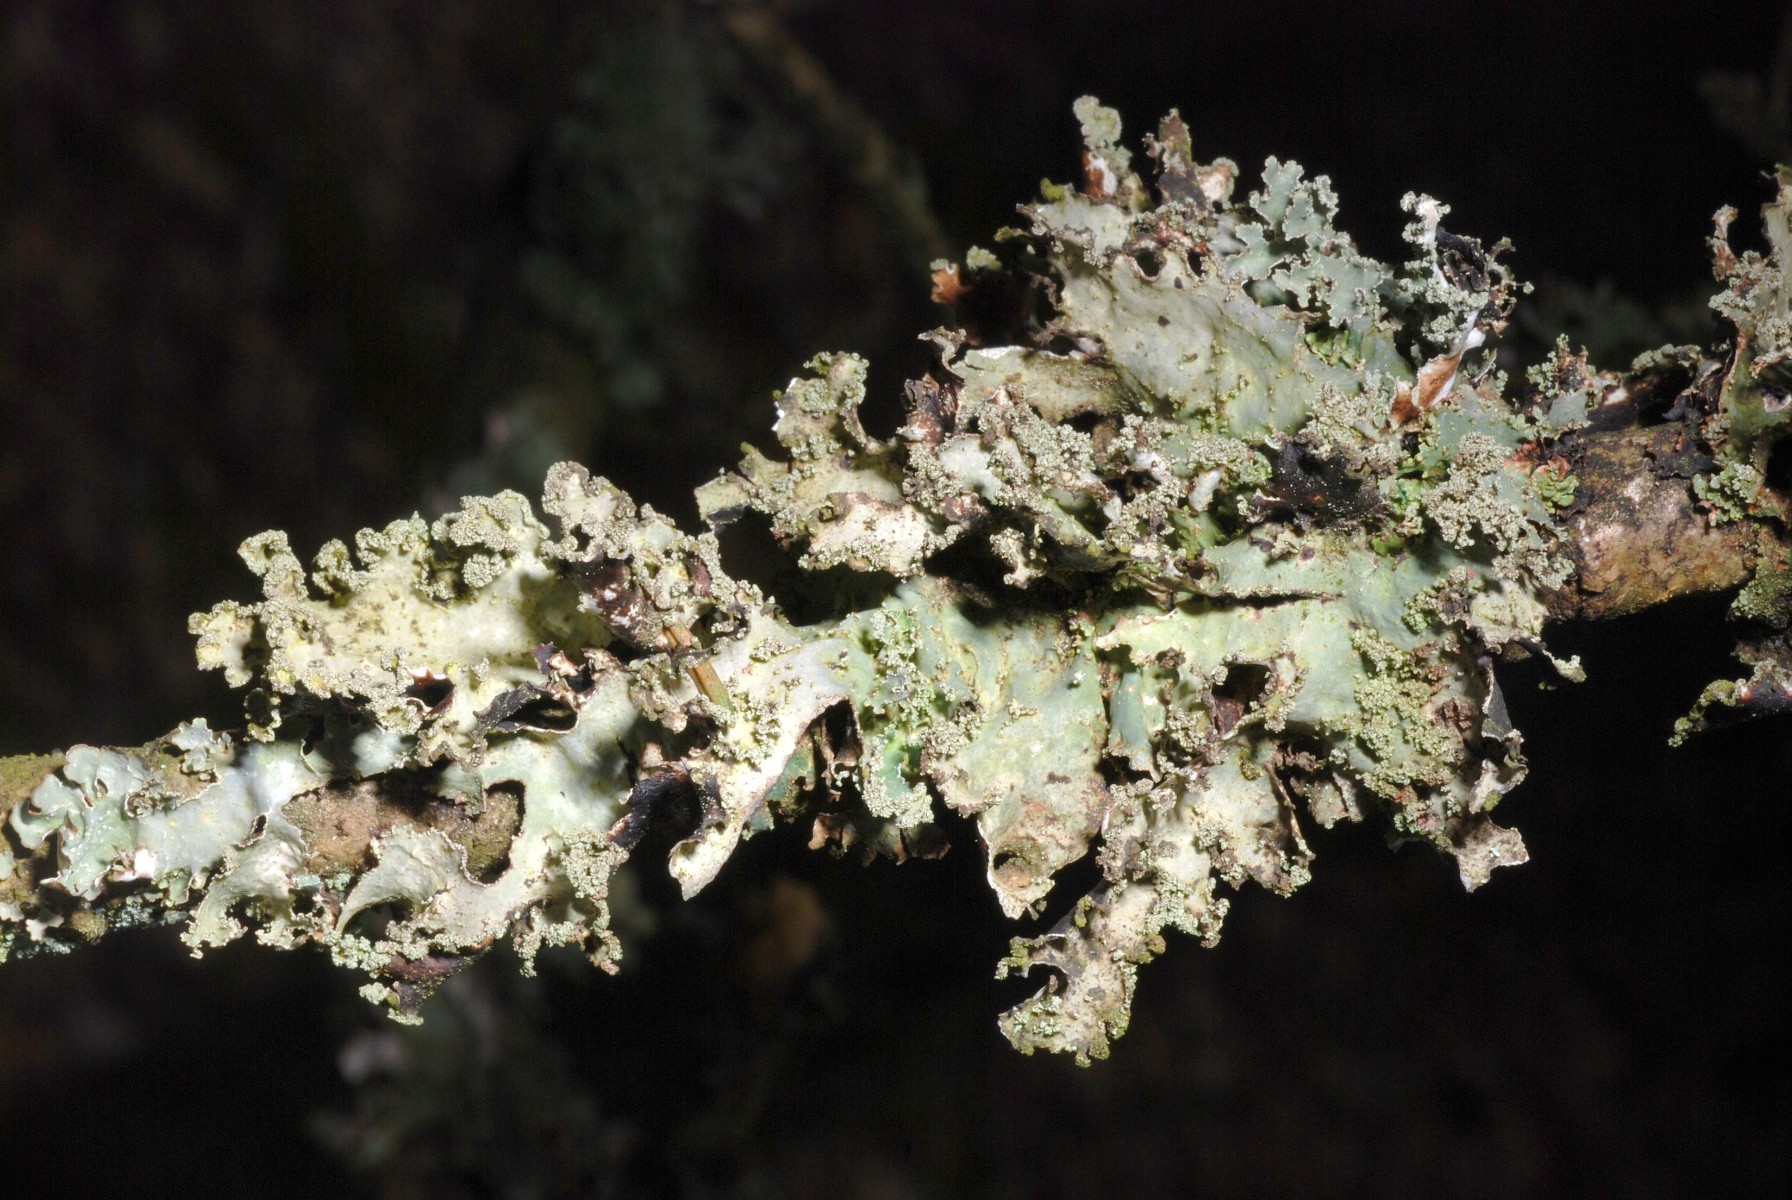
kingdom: Fungi
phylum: Ascomycota
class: Lecanoromycetes
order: Lecanorales
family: Parmeliaceae
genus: Platismatia
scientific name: Platismatia glauca
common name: blågrå papirlav
